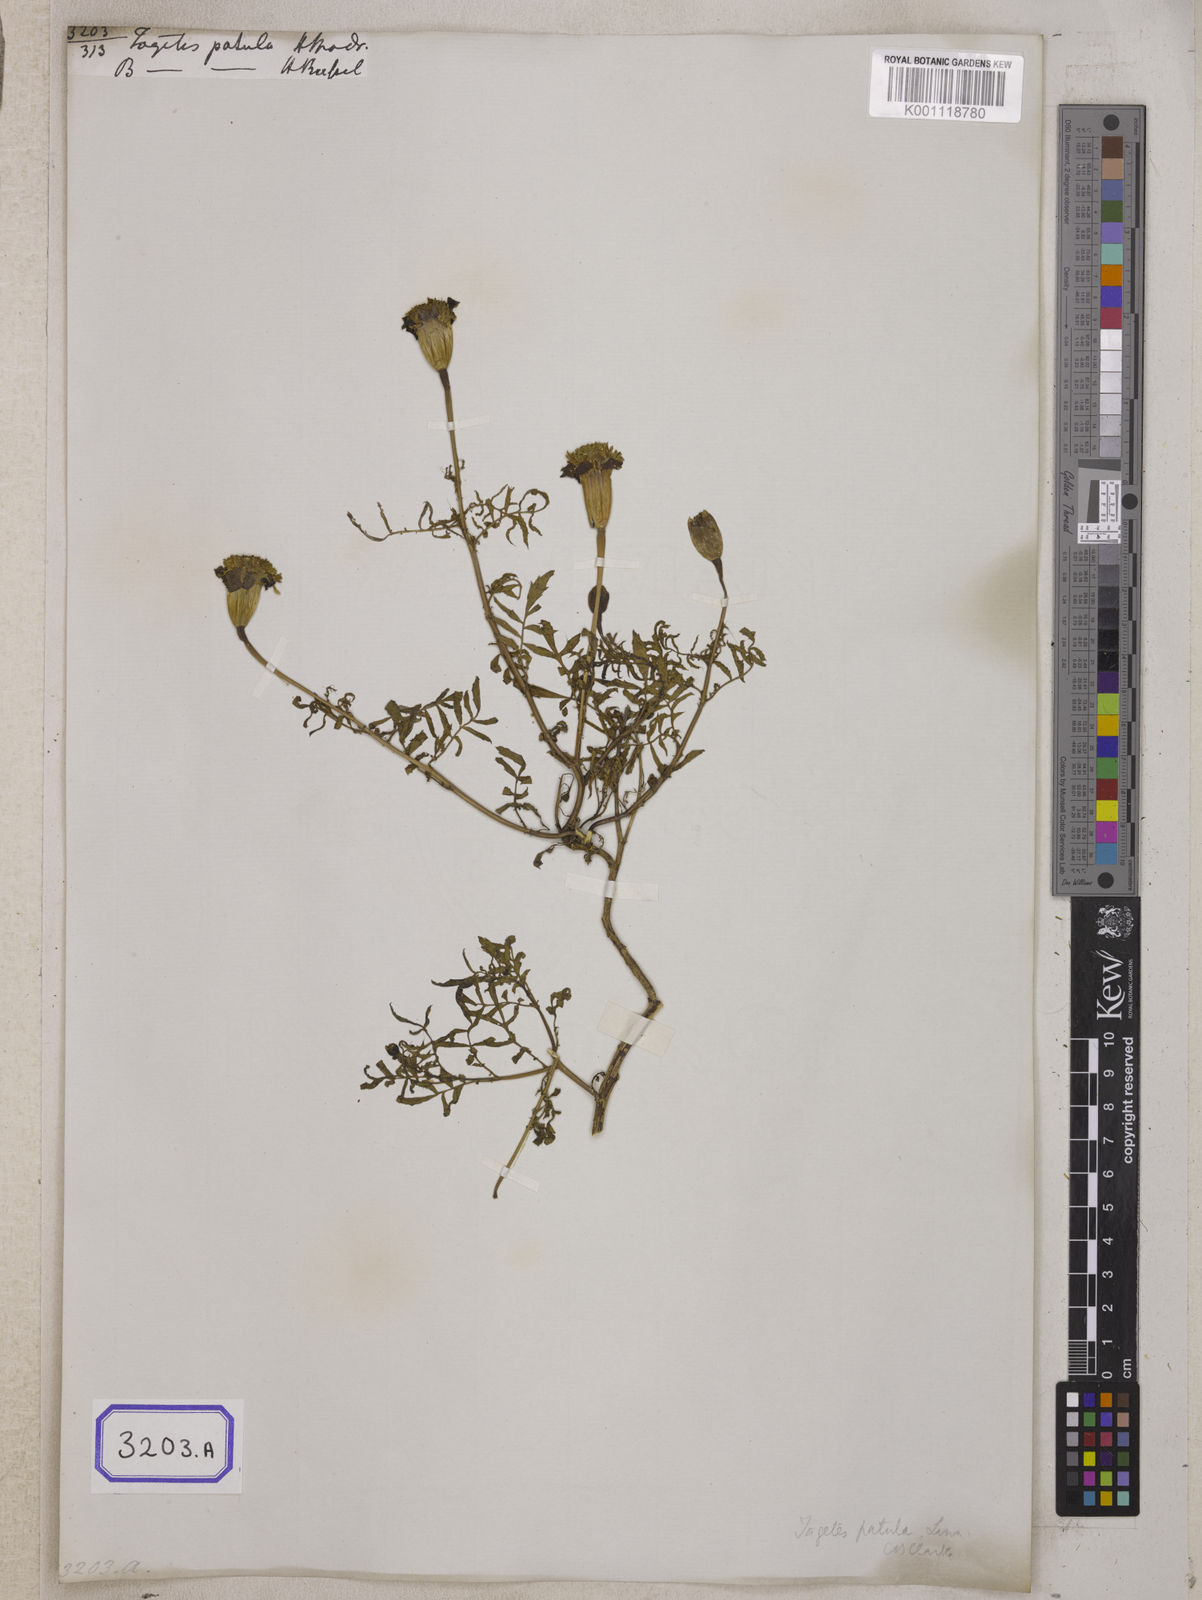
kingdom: Plantae
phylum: Tracheophyta
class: Magnoliopsida
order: Asterales
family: Asteraceae
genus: Tagetes
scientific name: Tagetes erecta
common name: African marigold
